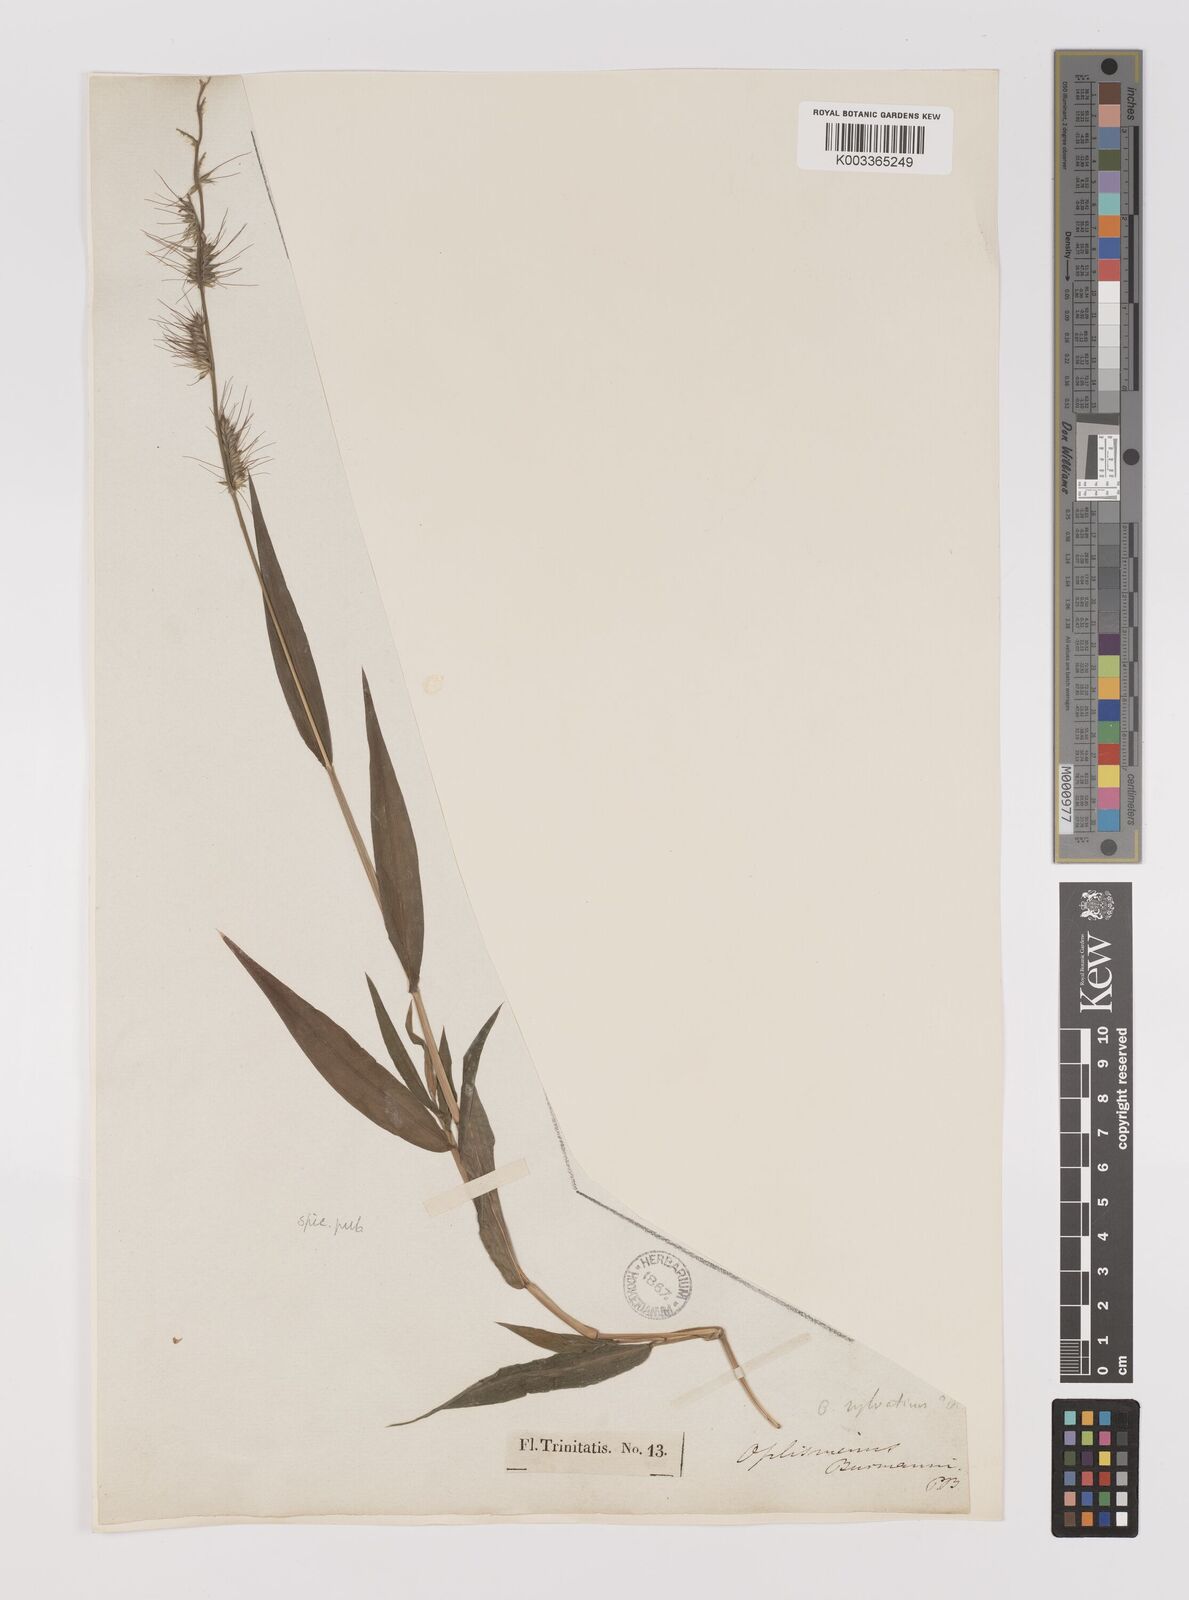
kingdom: Plantae
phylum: Tracheophyta
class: Liliopsida
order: Poales
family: Poaceae
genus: Oplismenus
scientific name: Oplismenus hirtellus
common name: Basketgrass
